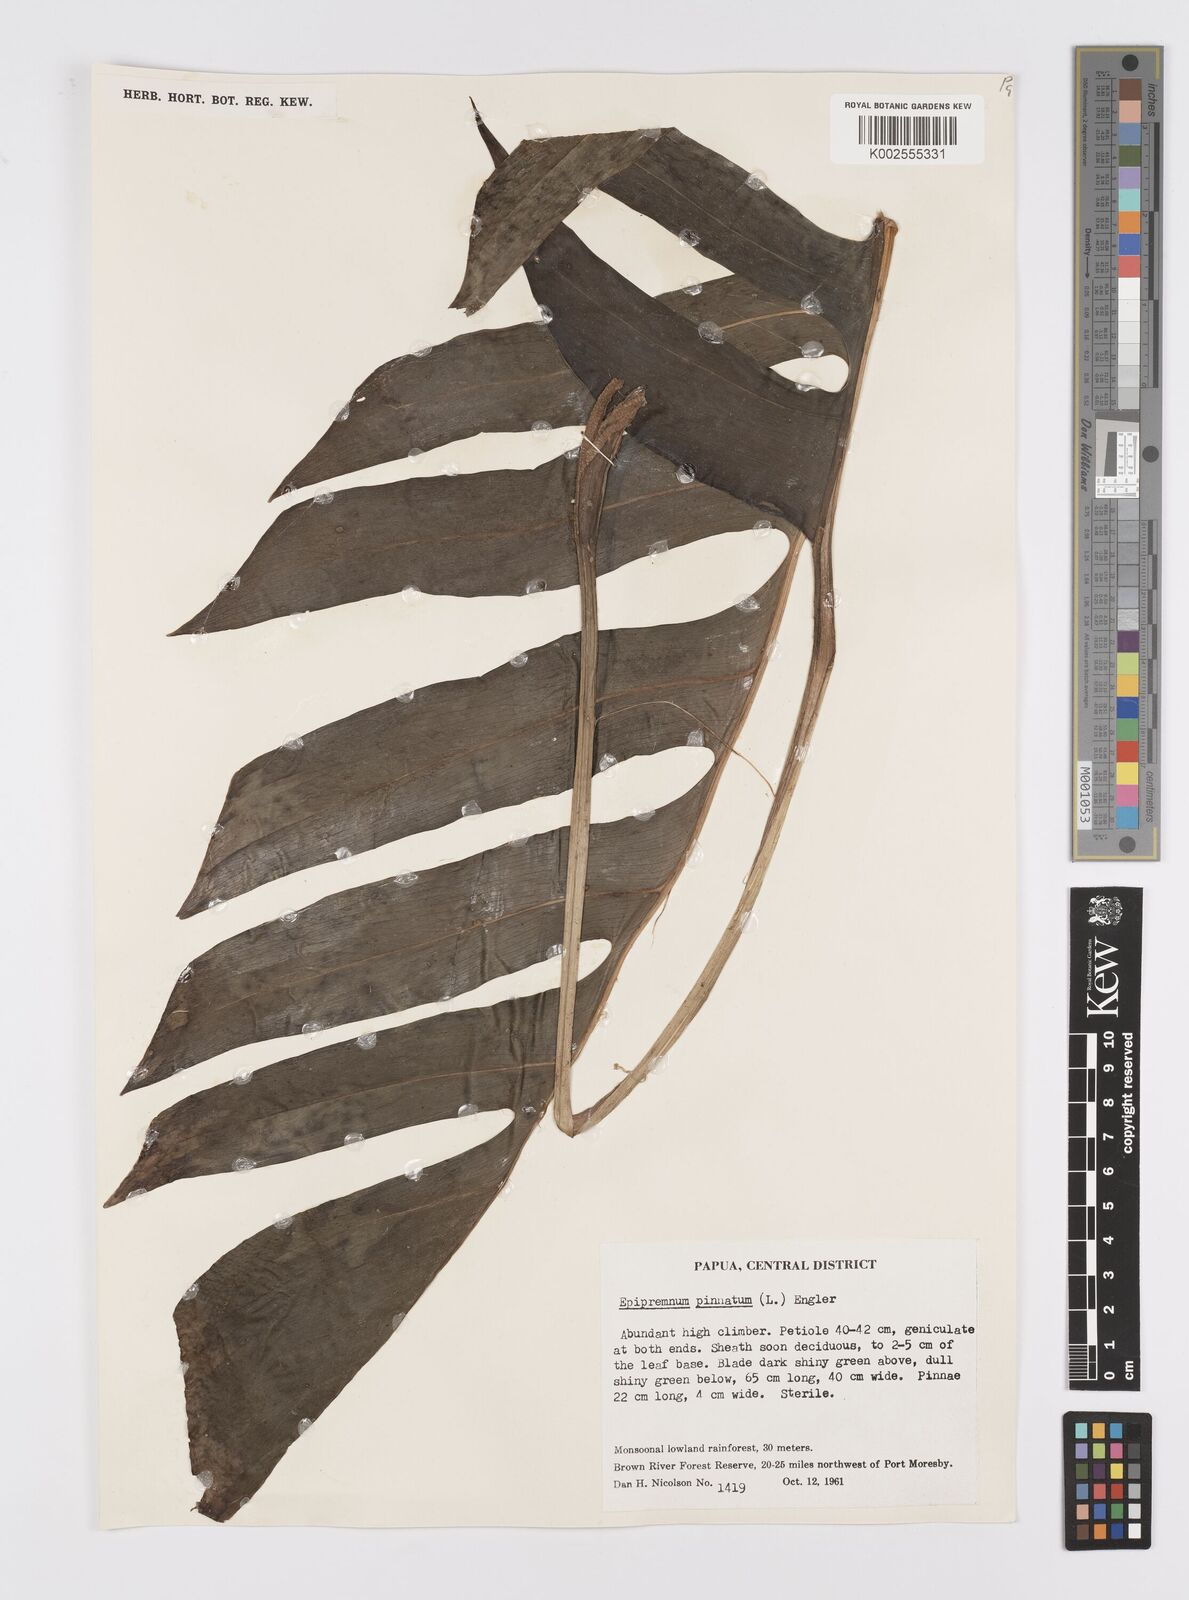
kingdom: Plantae
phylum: Tracheophyta
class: Liliopsida
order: Alismatales
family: Araceae
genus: Epipremnum
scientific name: Epipremnum pinnatum
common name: Centipede tongavine
